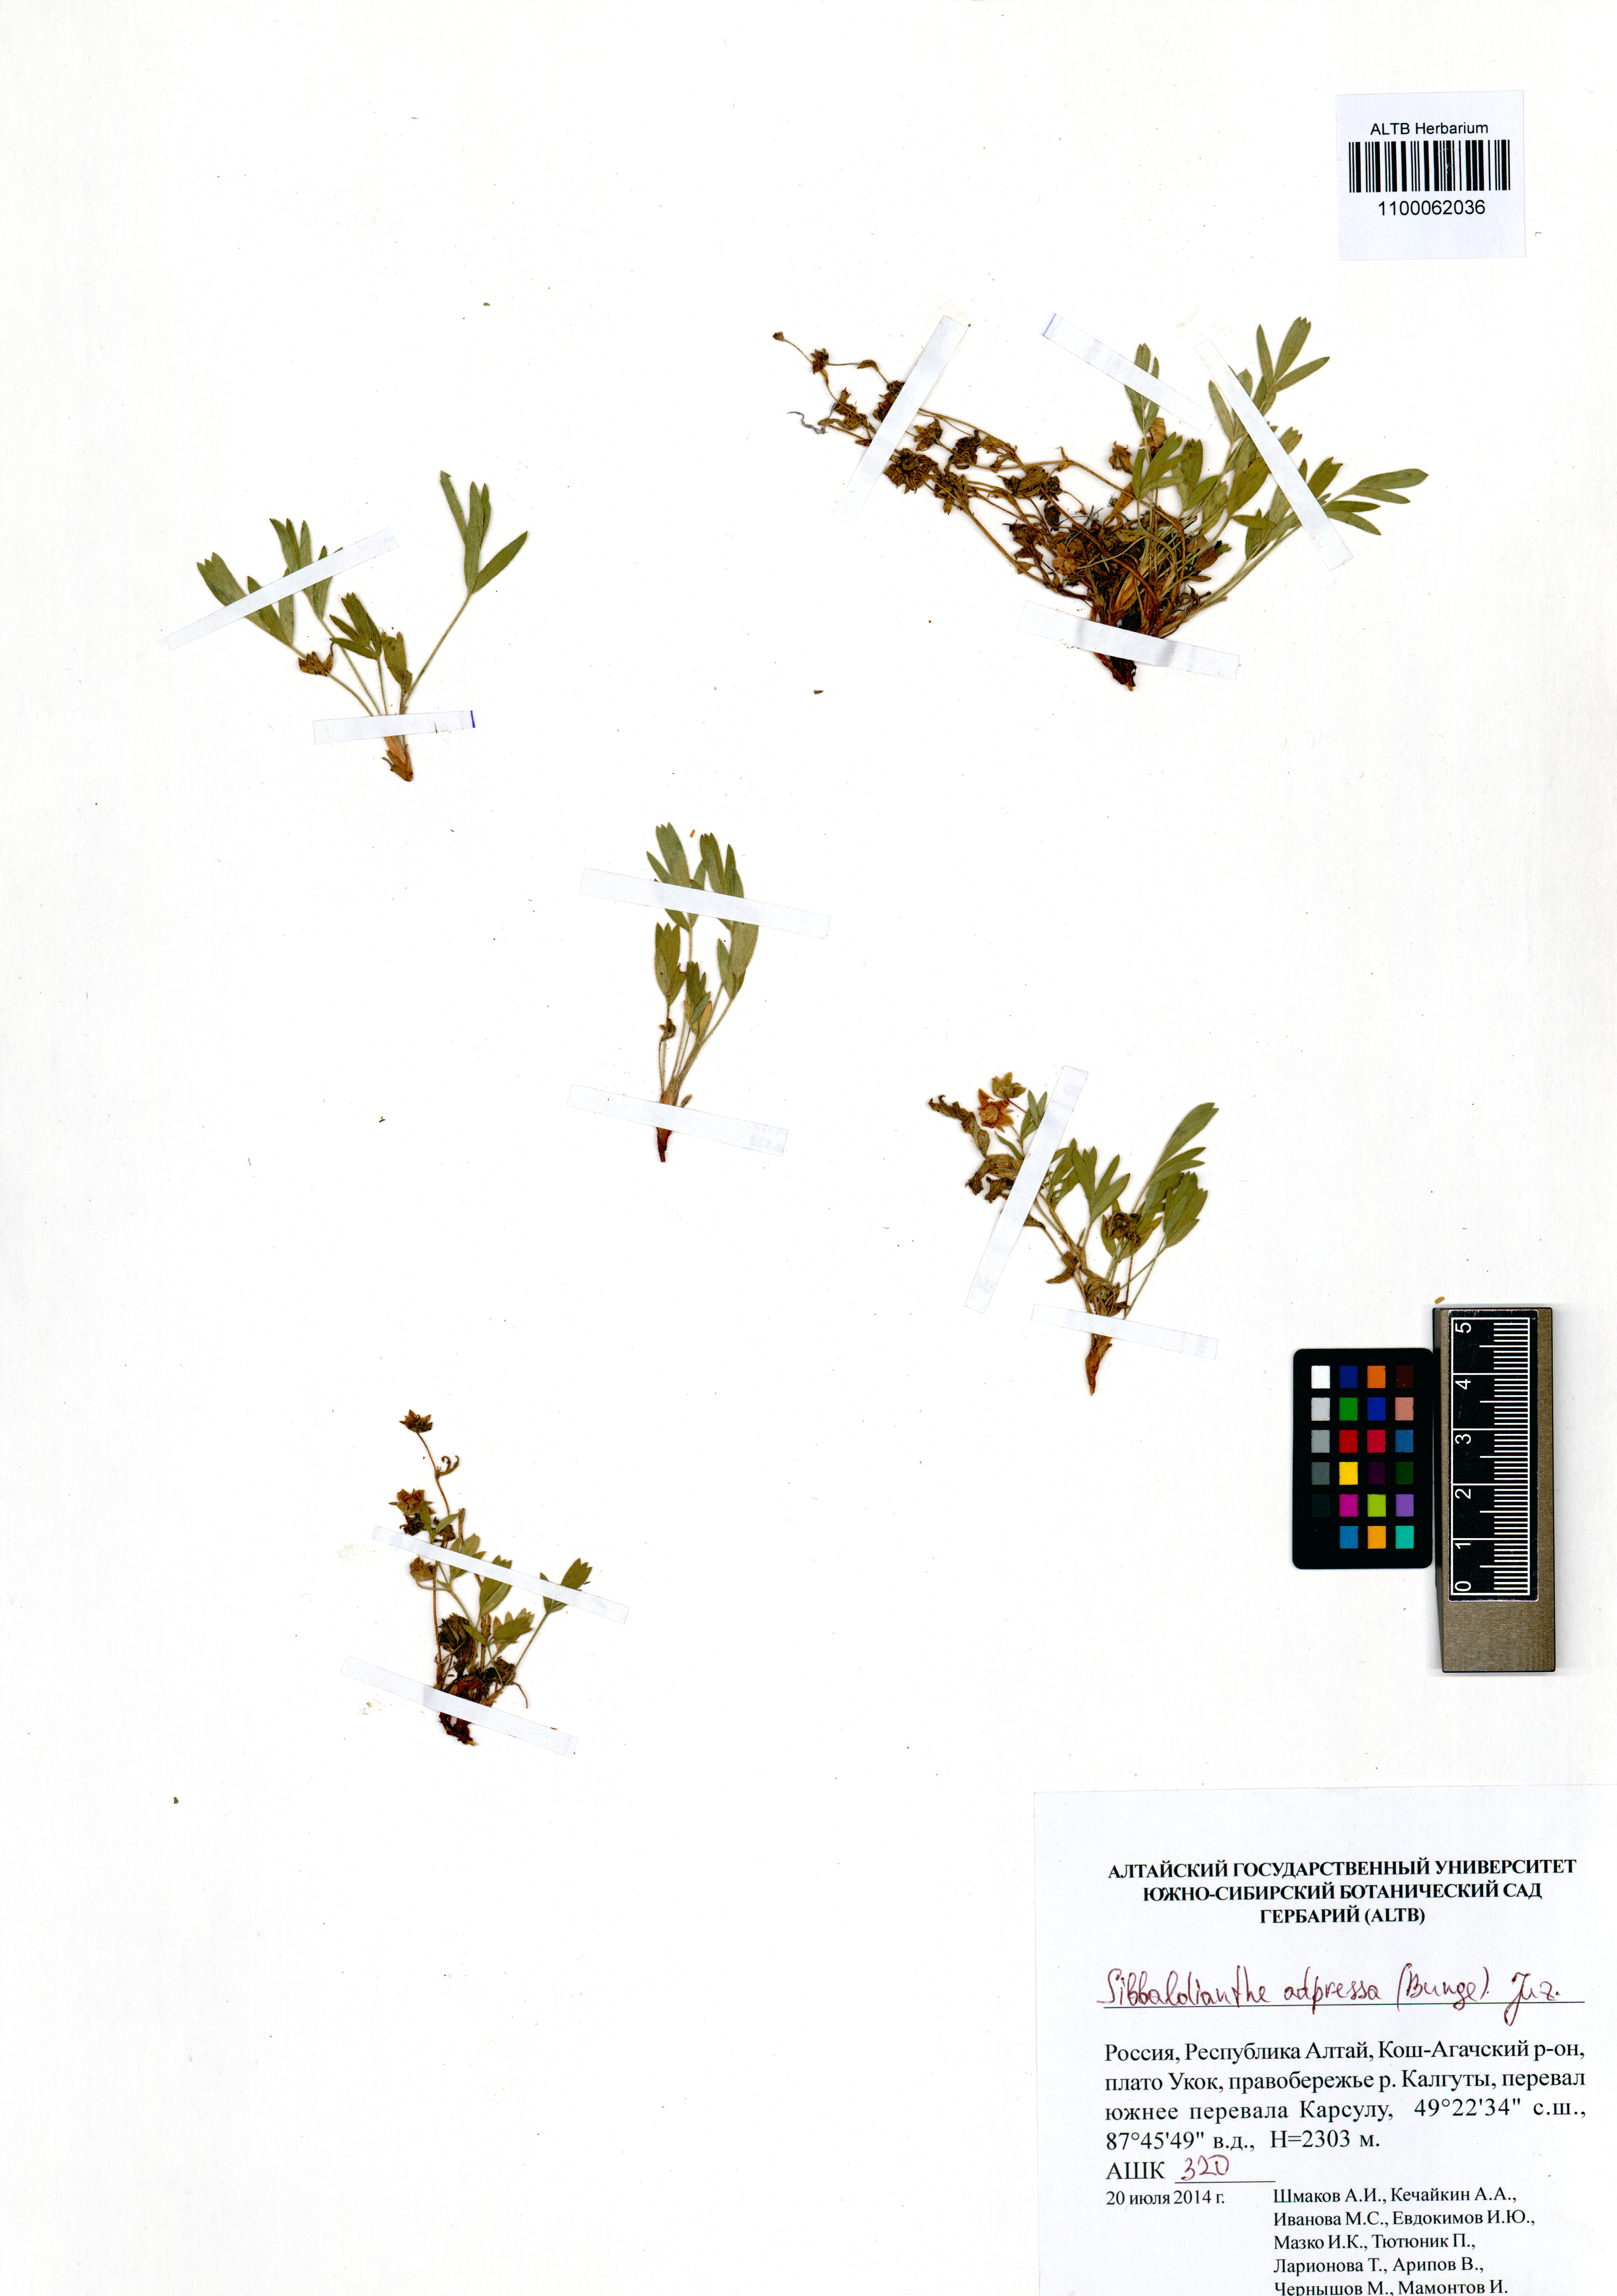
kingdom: Plantae
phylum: Tracheophyta
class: Magnoliopsida
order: Rosales
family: Rosaceae
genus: Sibbaldianthe
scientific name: Sibbaldianthe adpressa
